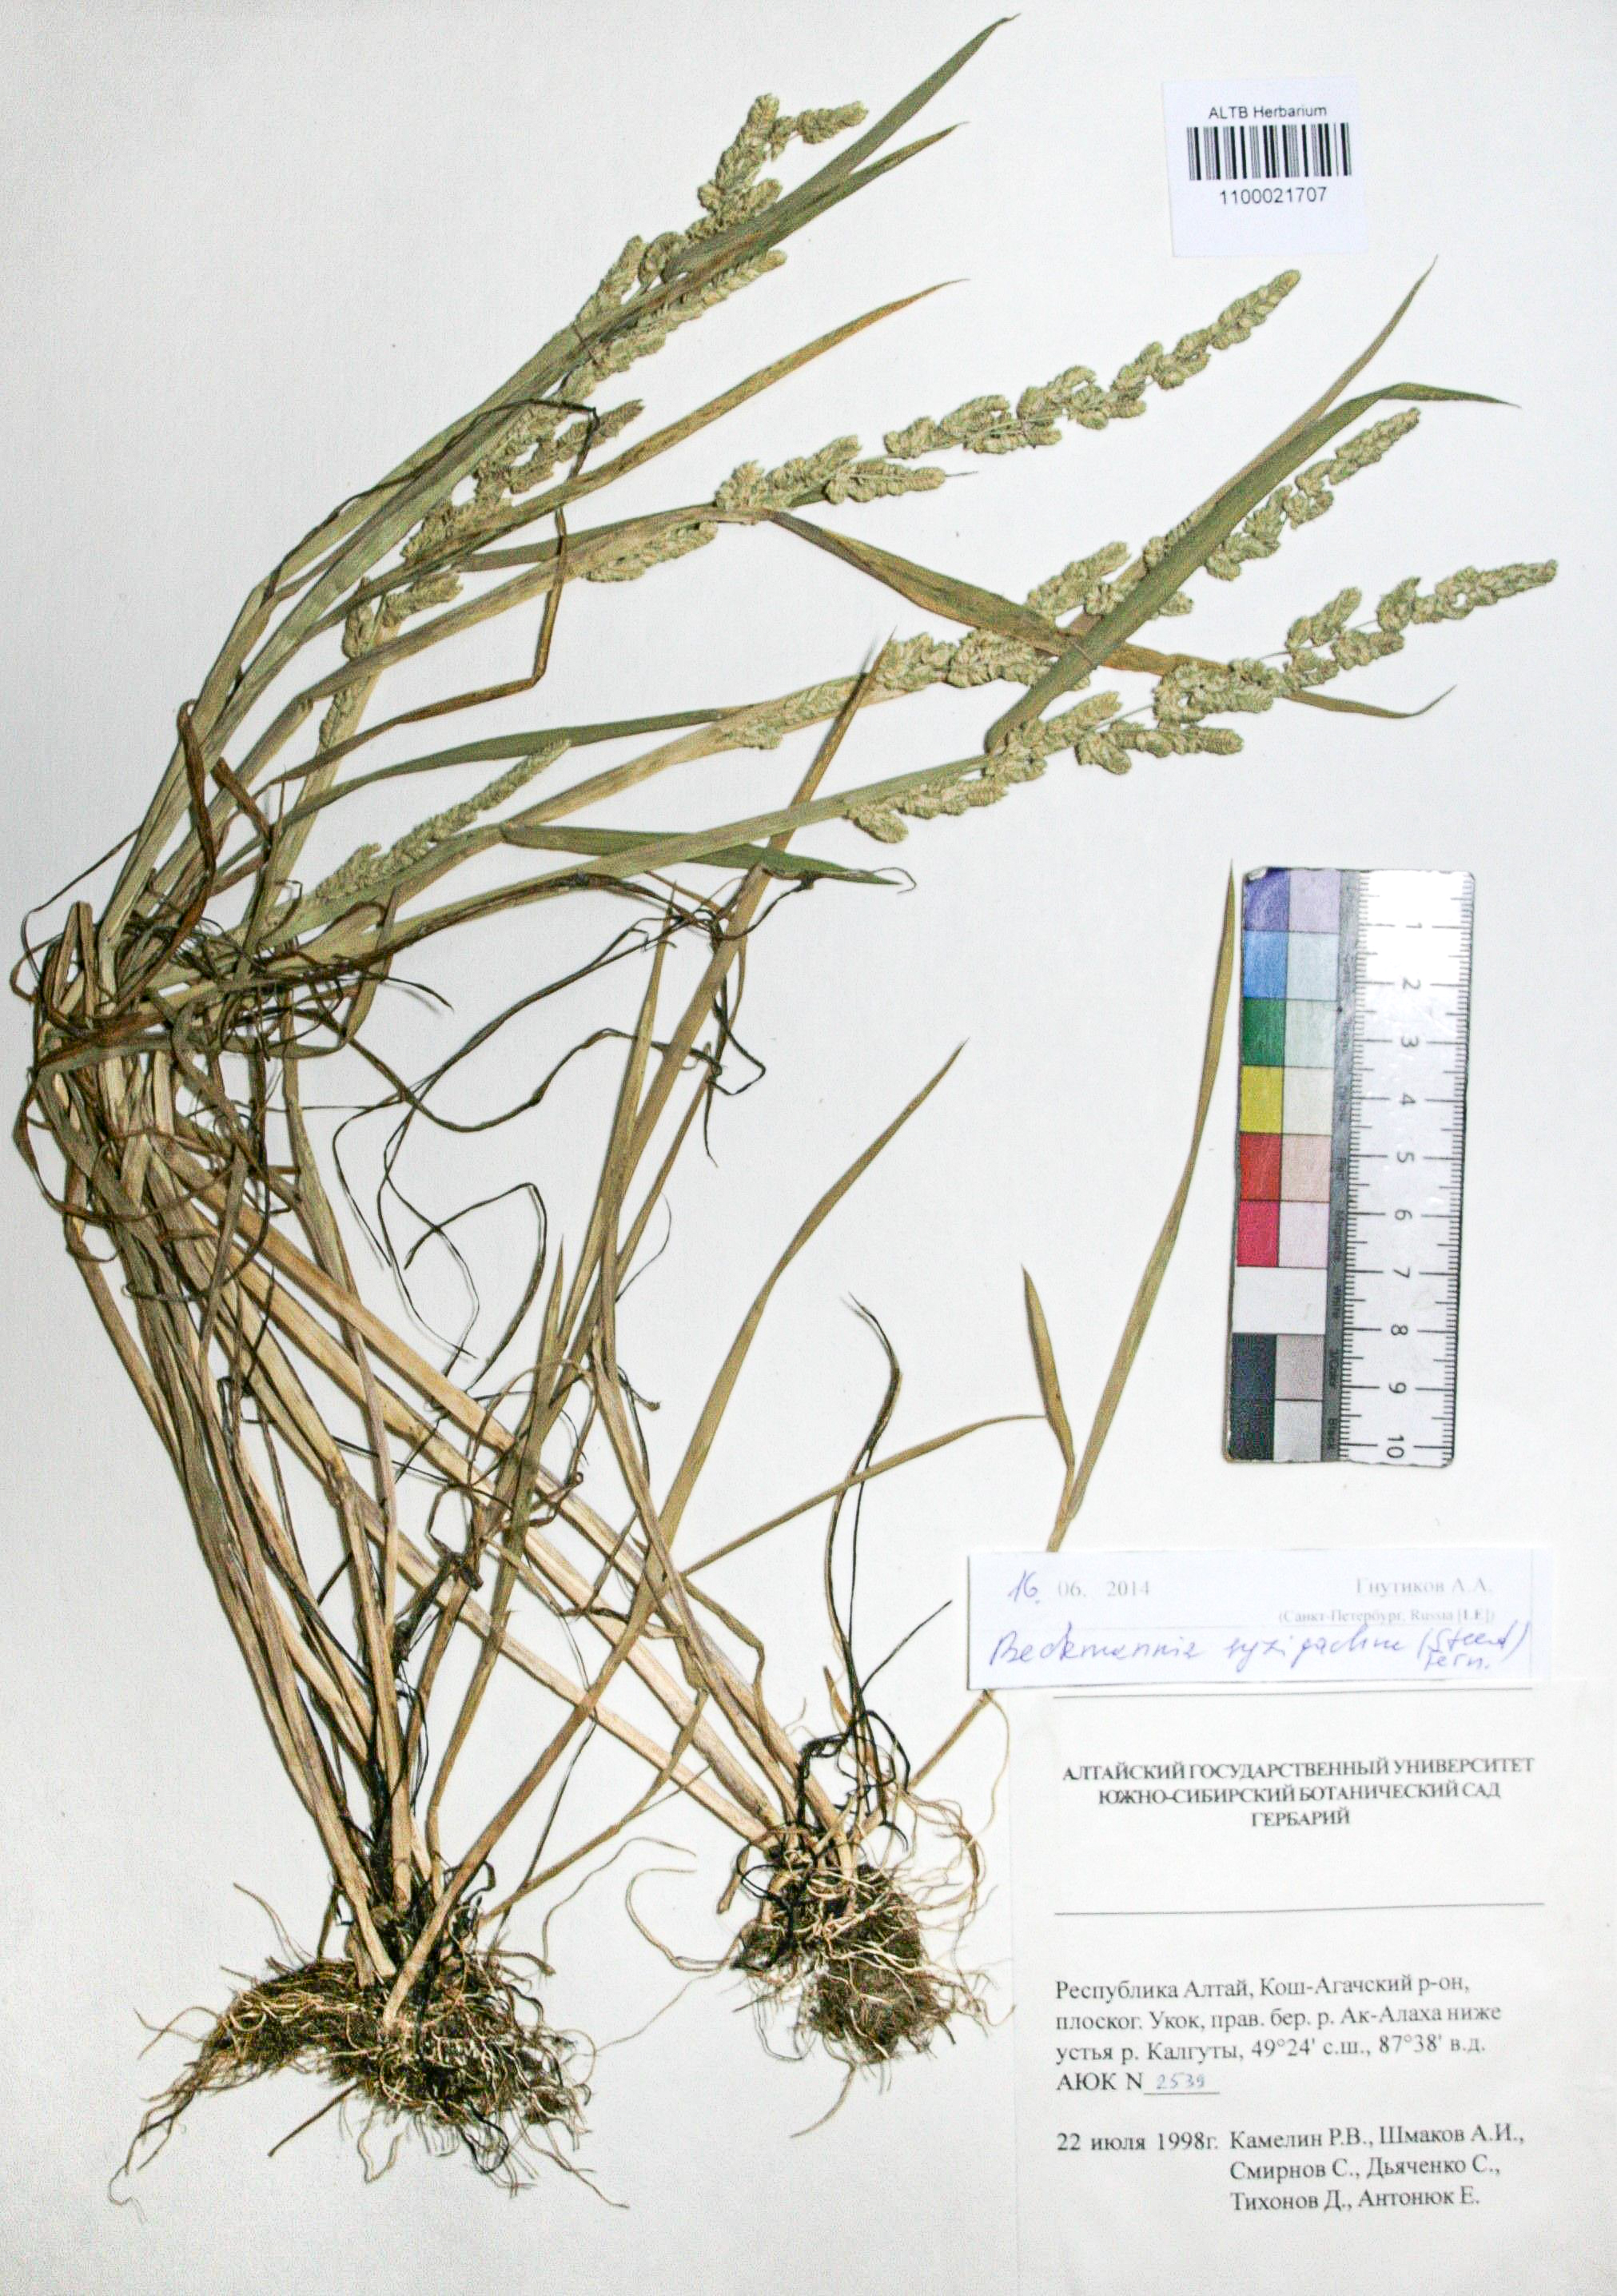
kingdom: Plantae
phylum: Tracheophyta
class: Liliopsida
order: Poales
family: Poaceae
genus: Beckmannia
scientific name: Beckmannia syzigachne
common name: American slough-grass
